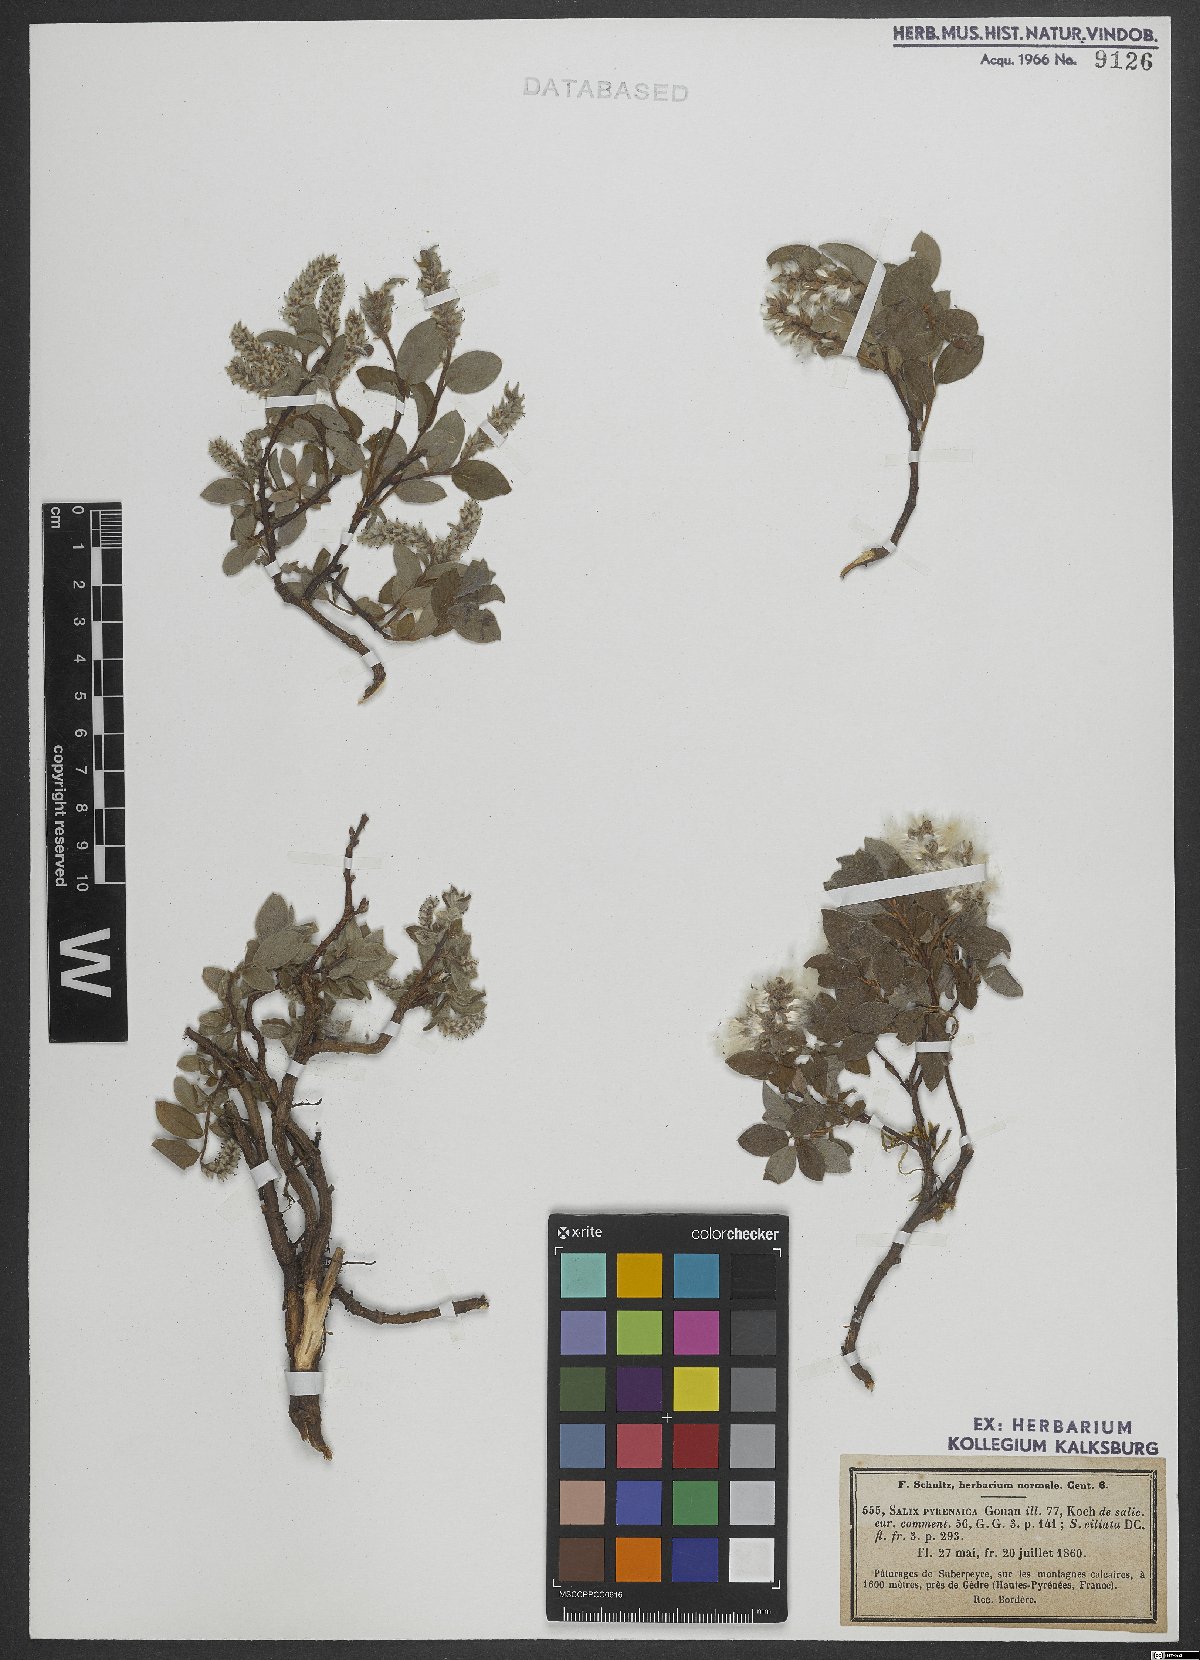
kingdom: Plantae
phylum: Tracheophyta
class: Magnoliopsida
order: Malpighiales
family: Salicaceae
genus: Salix
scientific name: Salix pyrenaica
